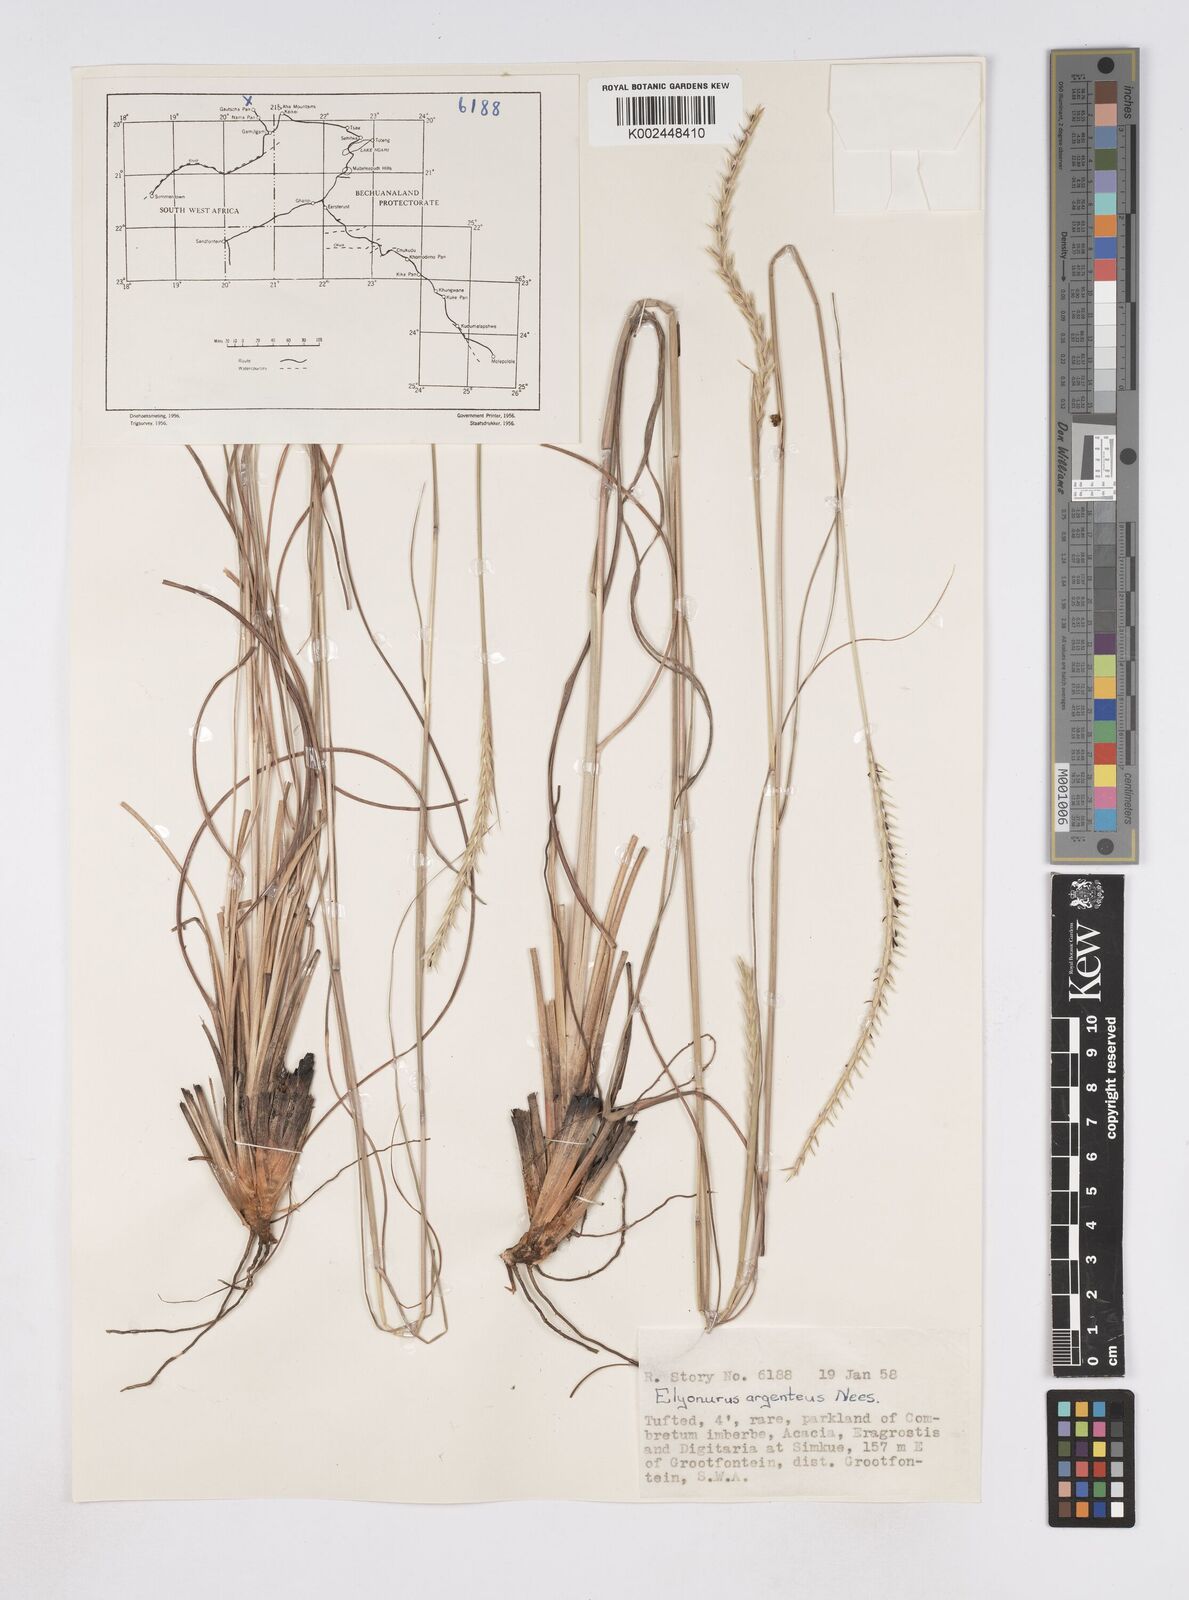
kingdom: Plantae
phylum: Tracheophyta
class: Liliopsida
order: Poales
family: Poaceae
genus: Elionurus
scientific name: Elionurus tripsacoides
